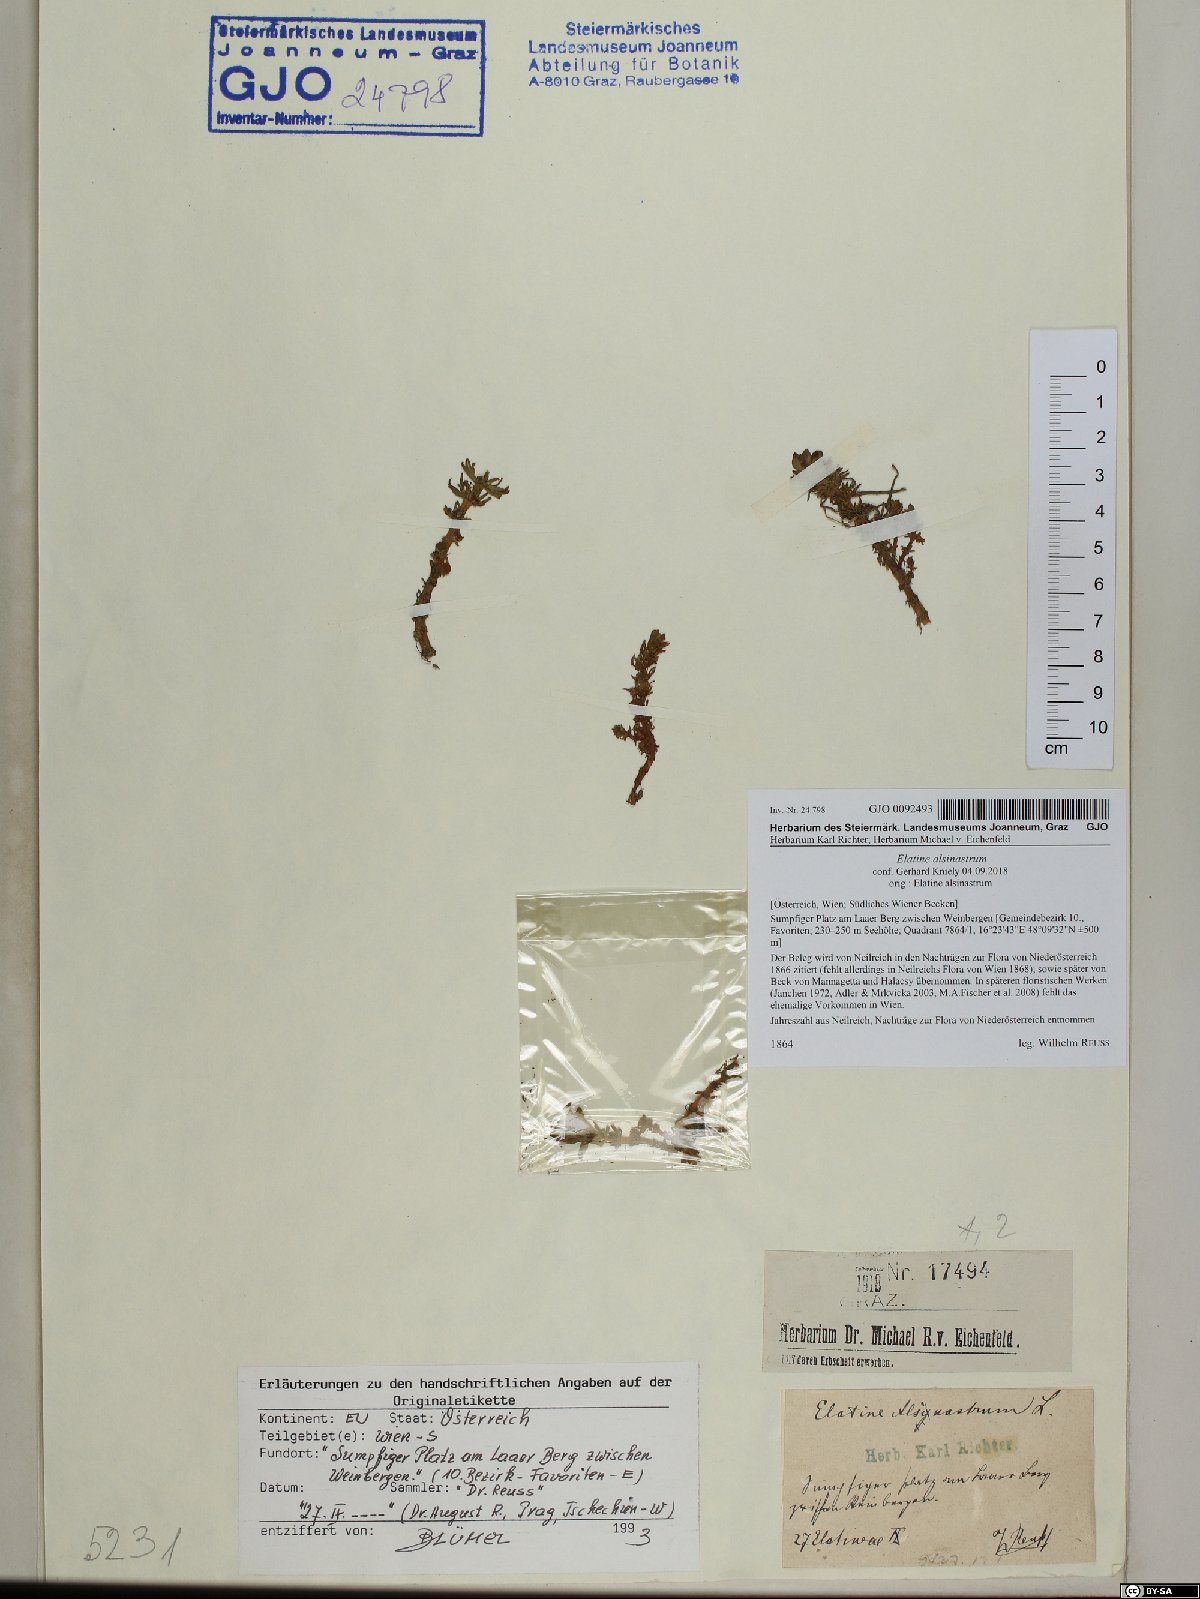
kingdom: Plantae
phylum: Tracheophyta
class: Magnoliopsida
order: Malpighiales
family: Elatinaceae
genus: Elatine
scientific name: Elatine alsinastrum
